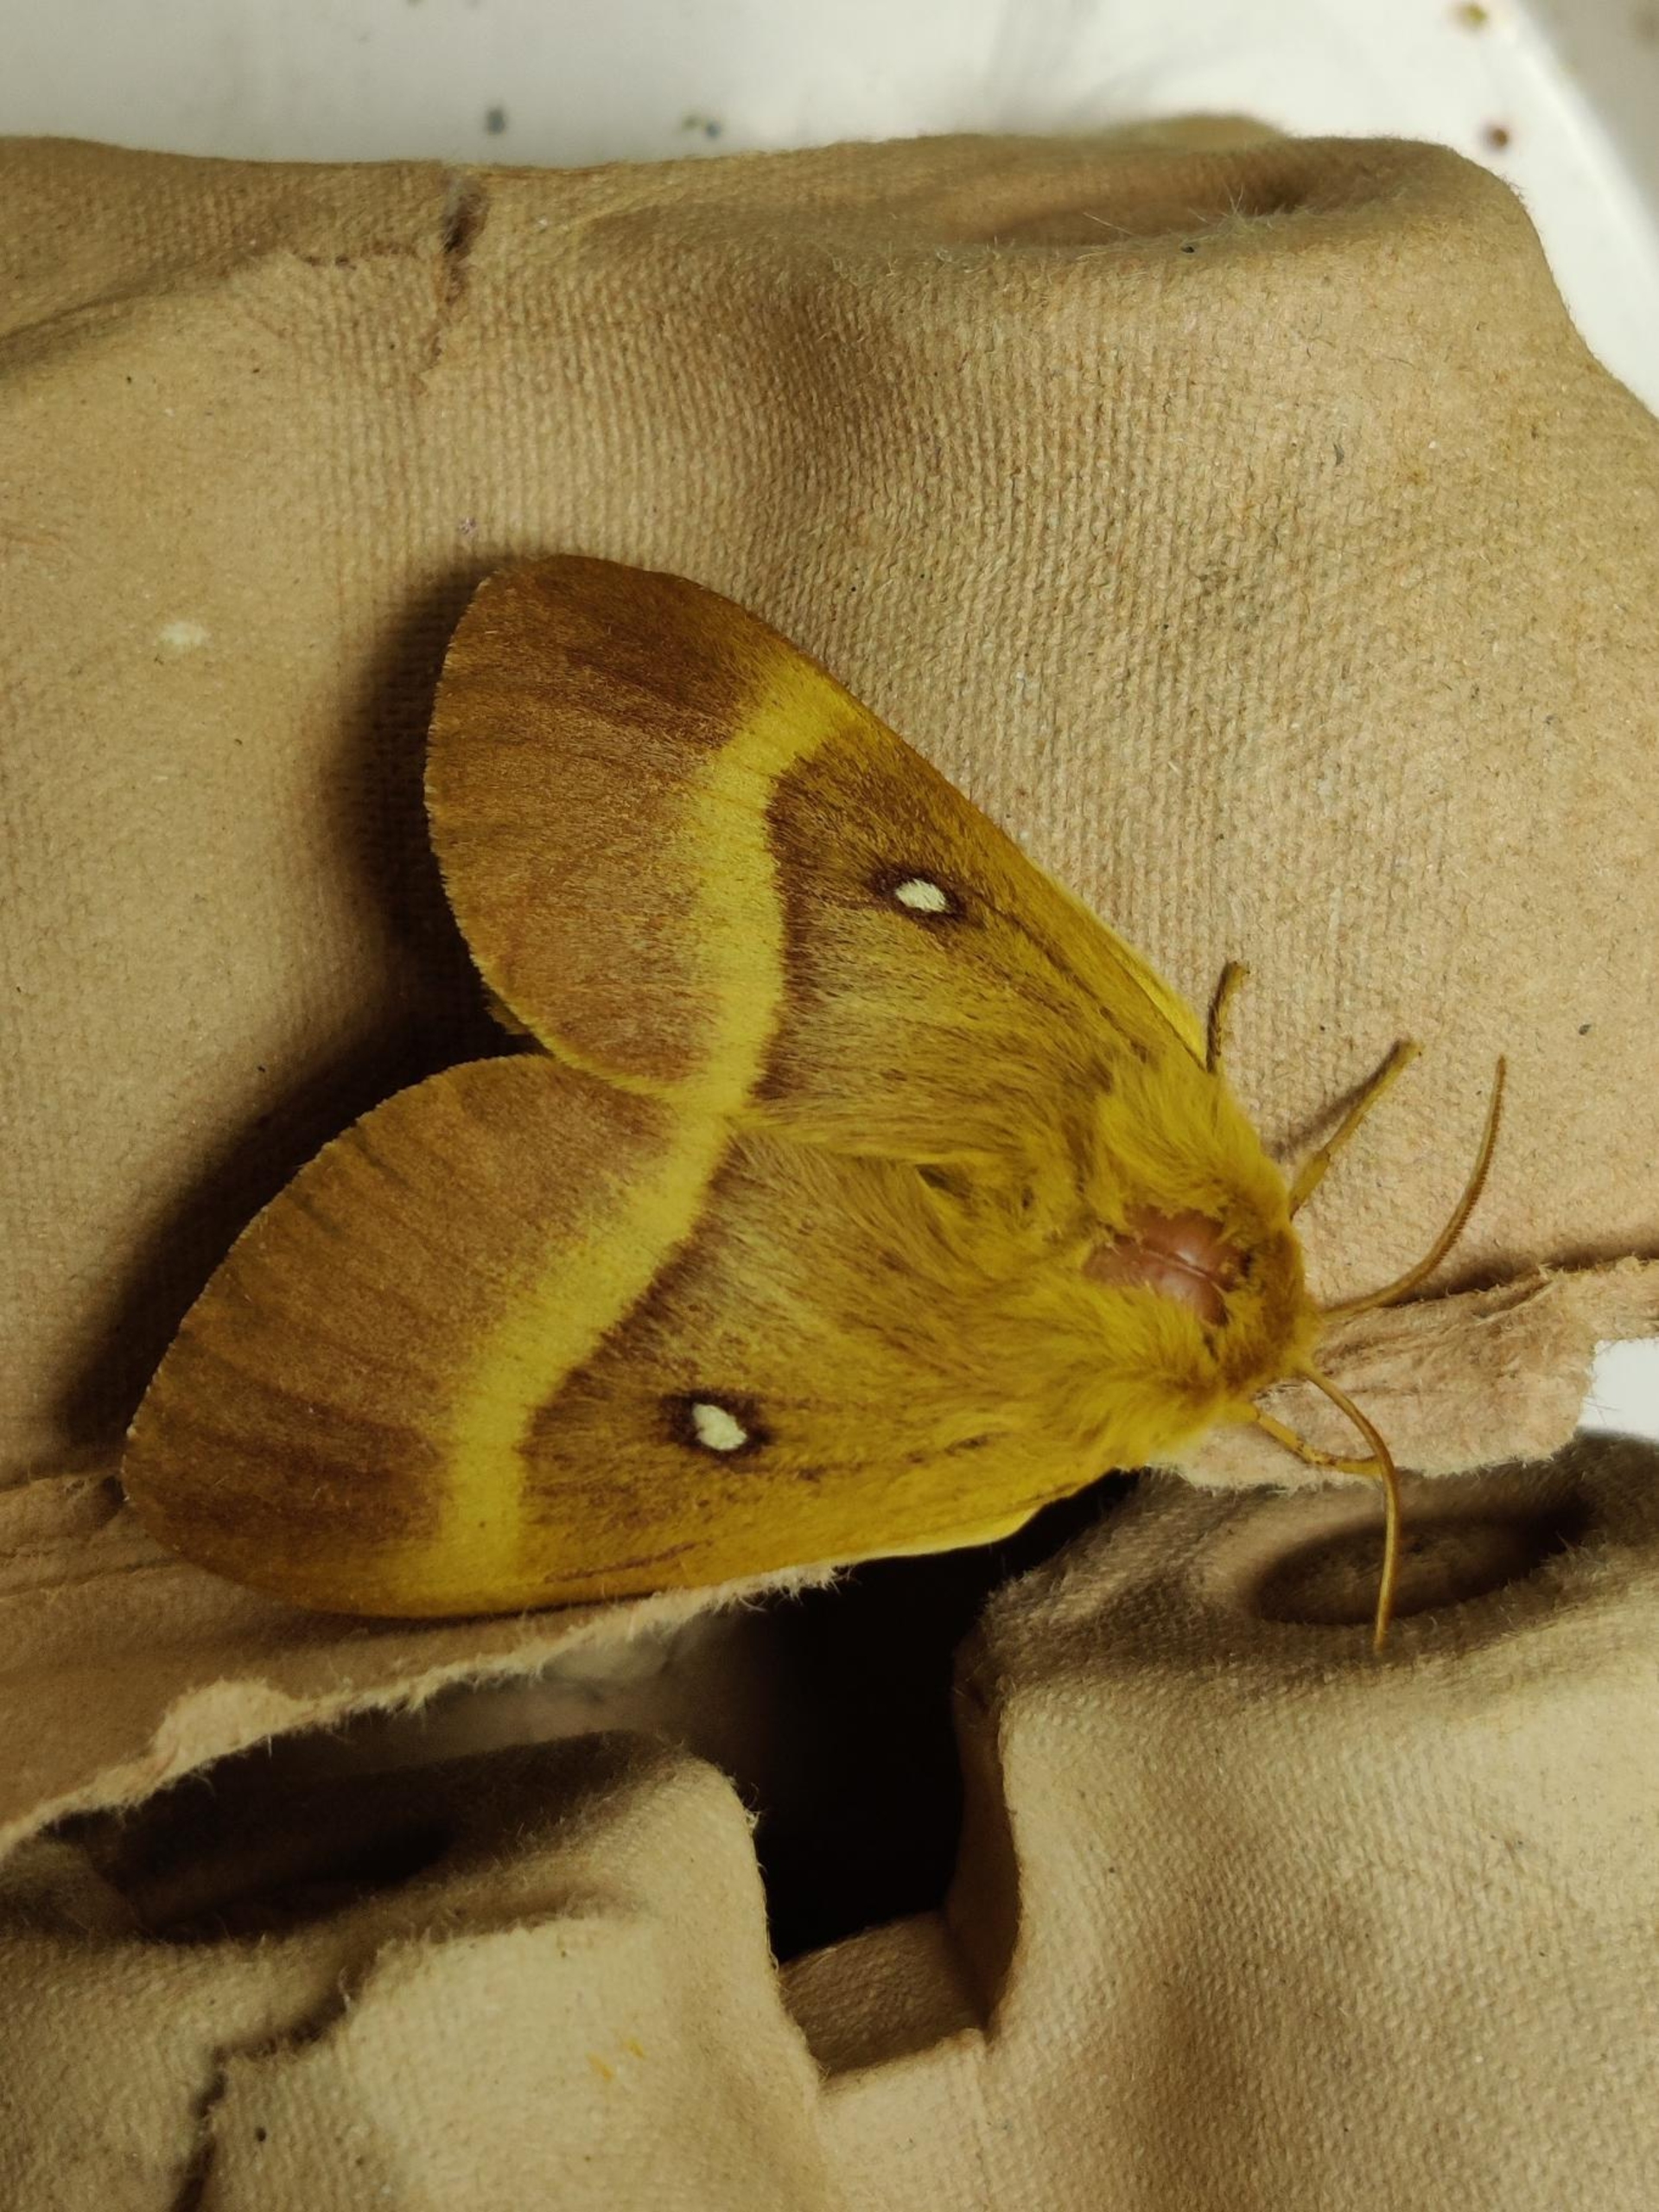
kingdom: Animalia
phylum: Arthropoda
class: Insecta
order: Lepidoptera
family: Lasiocampidae
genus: Lasiocampa
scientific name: Lasiocampa quercus
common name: Egespinder
